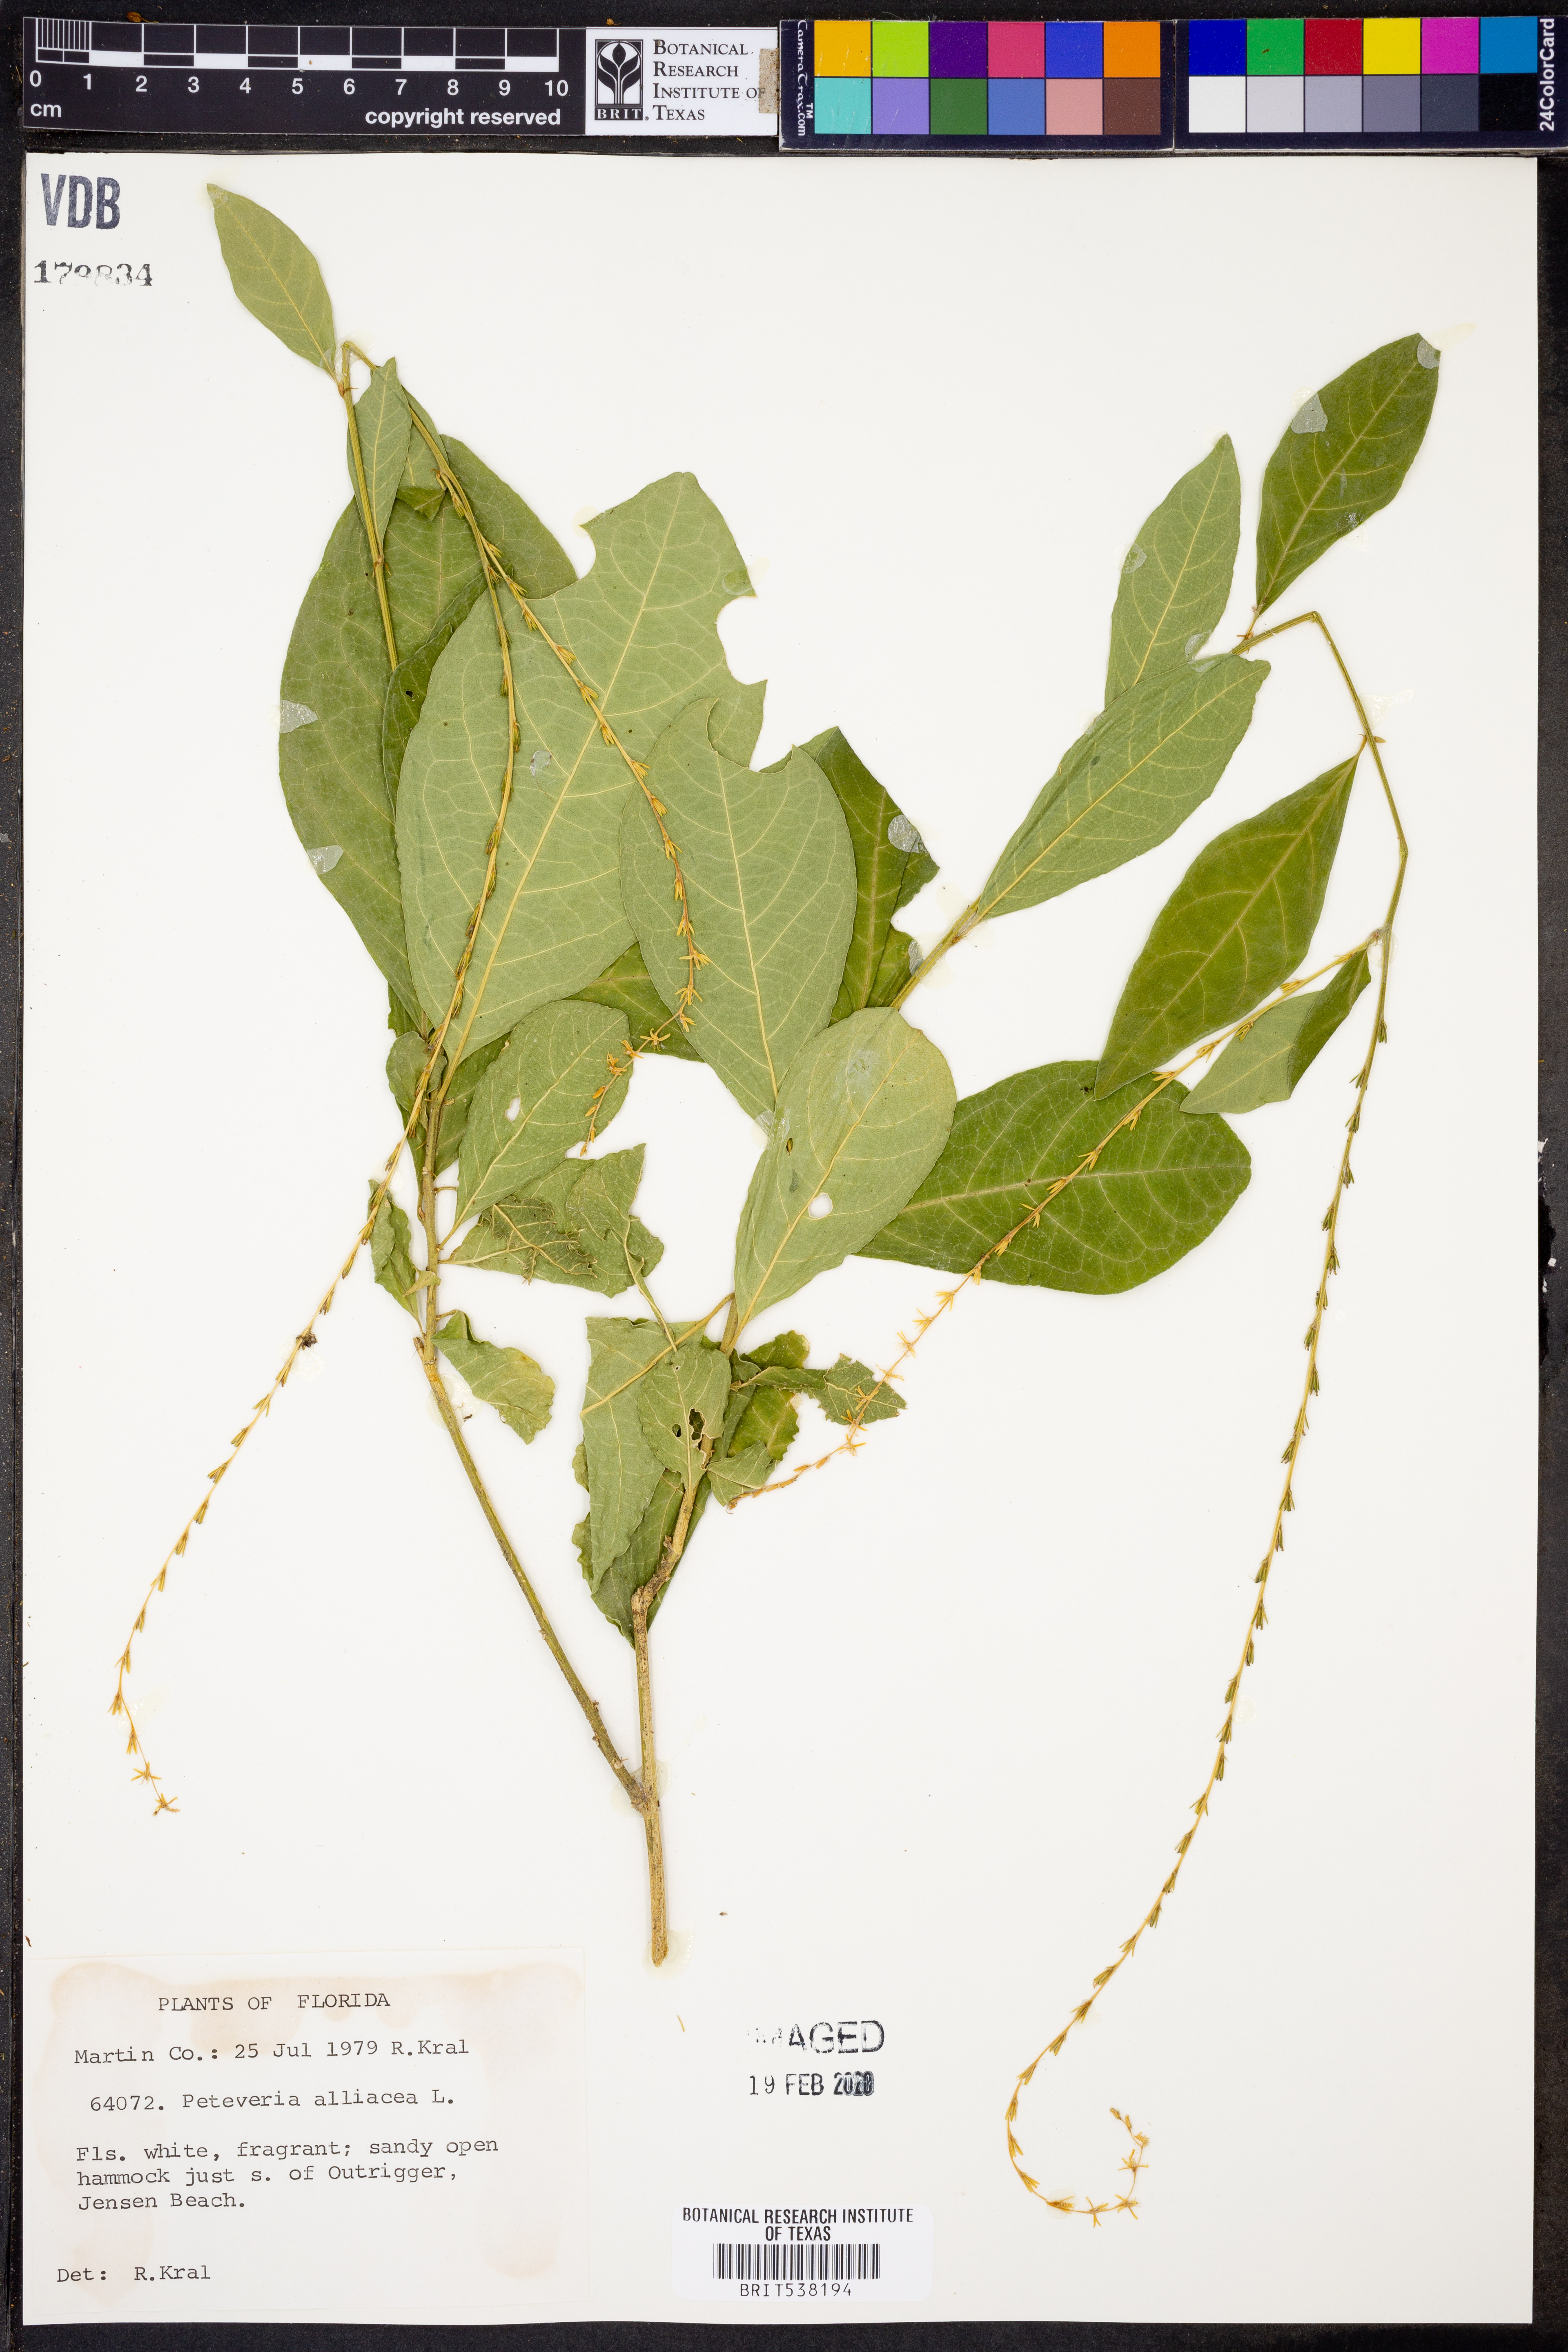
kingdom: Plantae
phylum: Tracheophyta
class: Magnoliopsida
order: Caryophyllales
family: Phytolaccaceae
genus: Petiveria
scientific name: Petiveria alliacea
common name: Garlicweed
